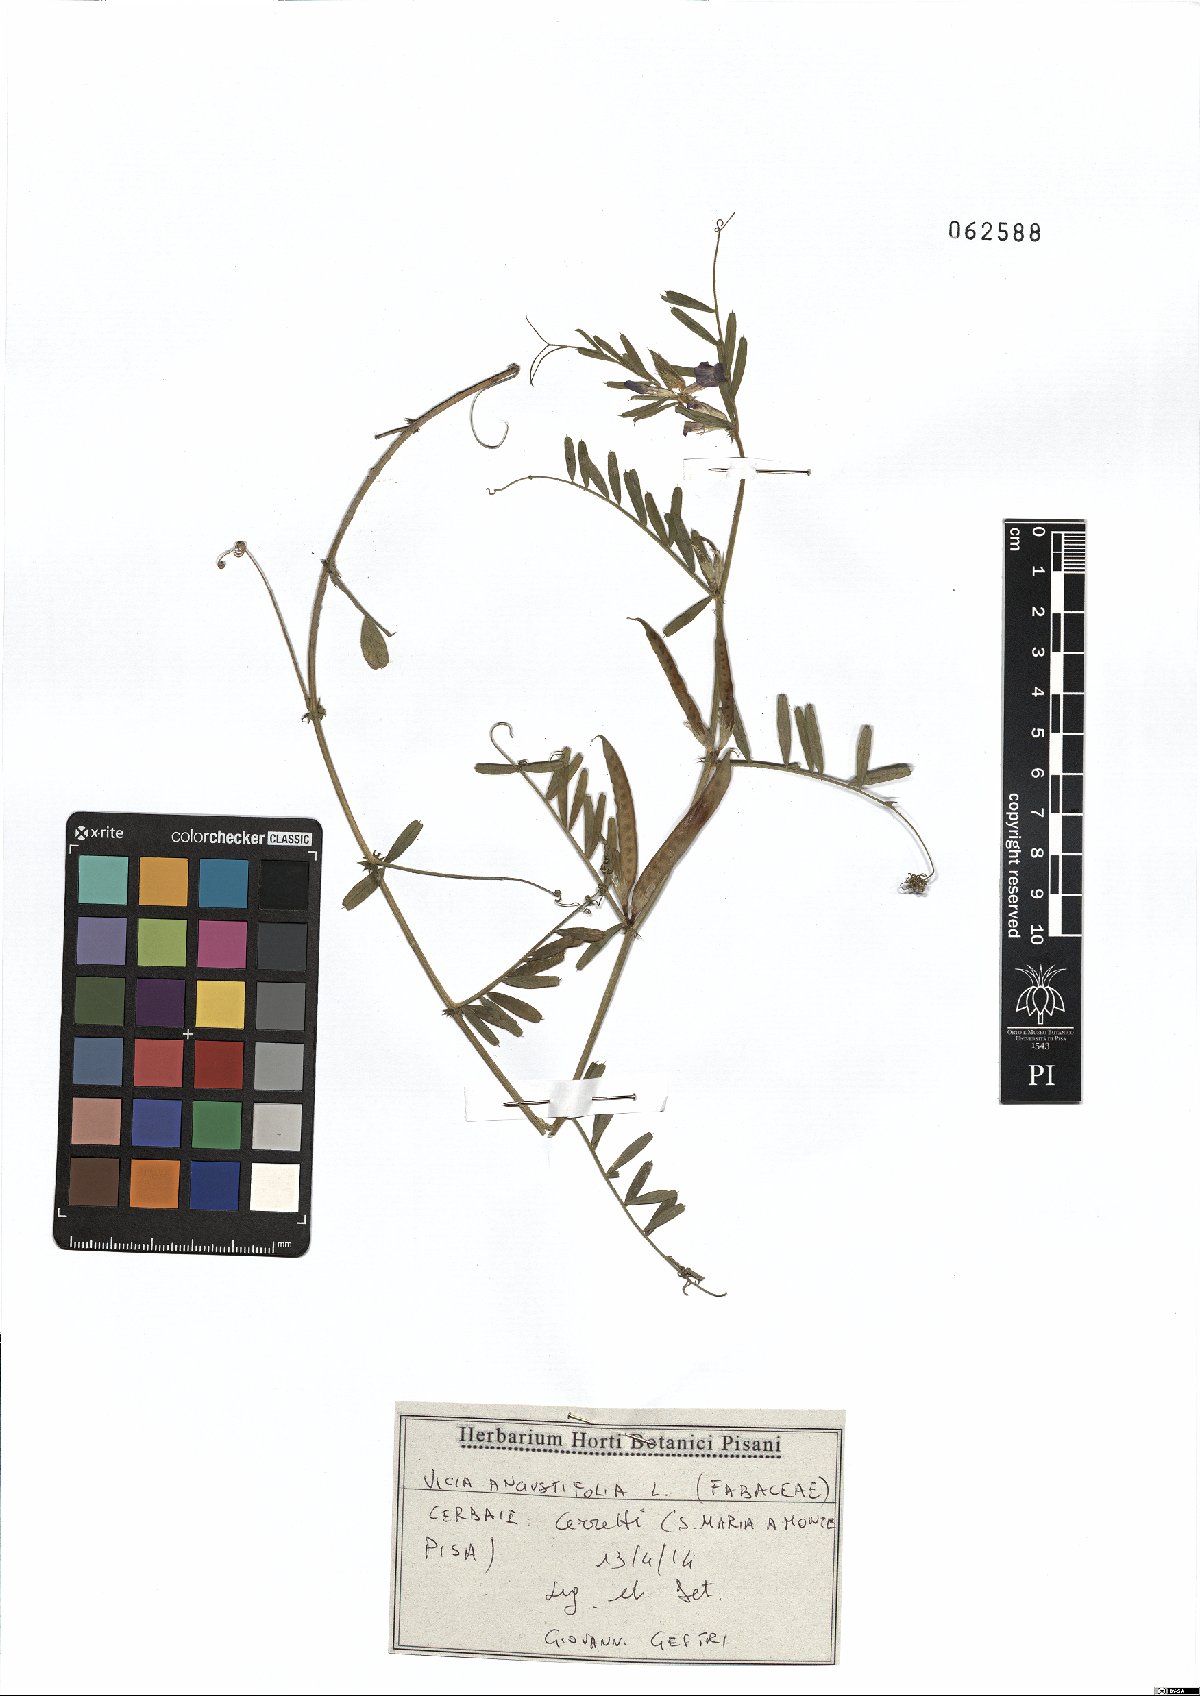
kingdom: Plantae
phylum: Tracheophyta
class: Magnoliopsida
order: Fabales
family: Fabaceae
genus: Vicia
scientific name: Vicia sativa
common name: Garden vetch
